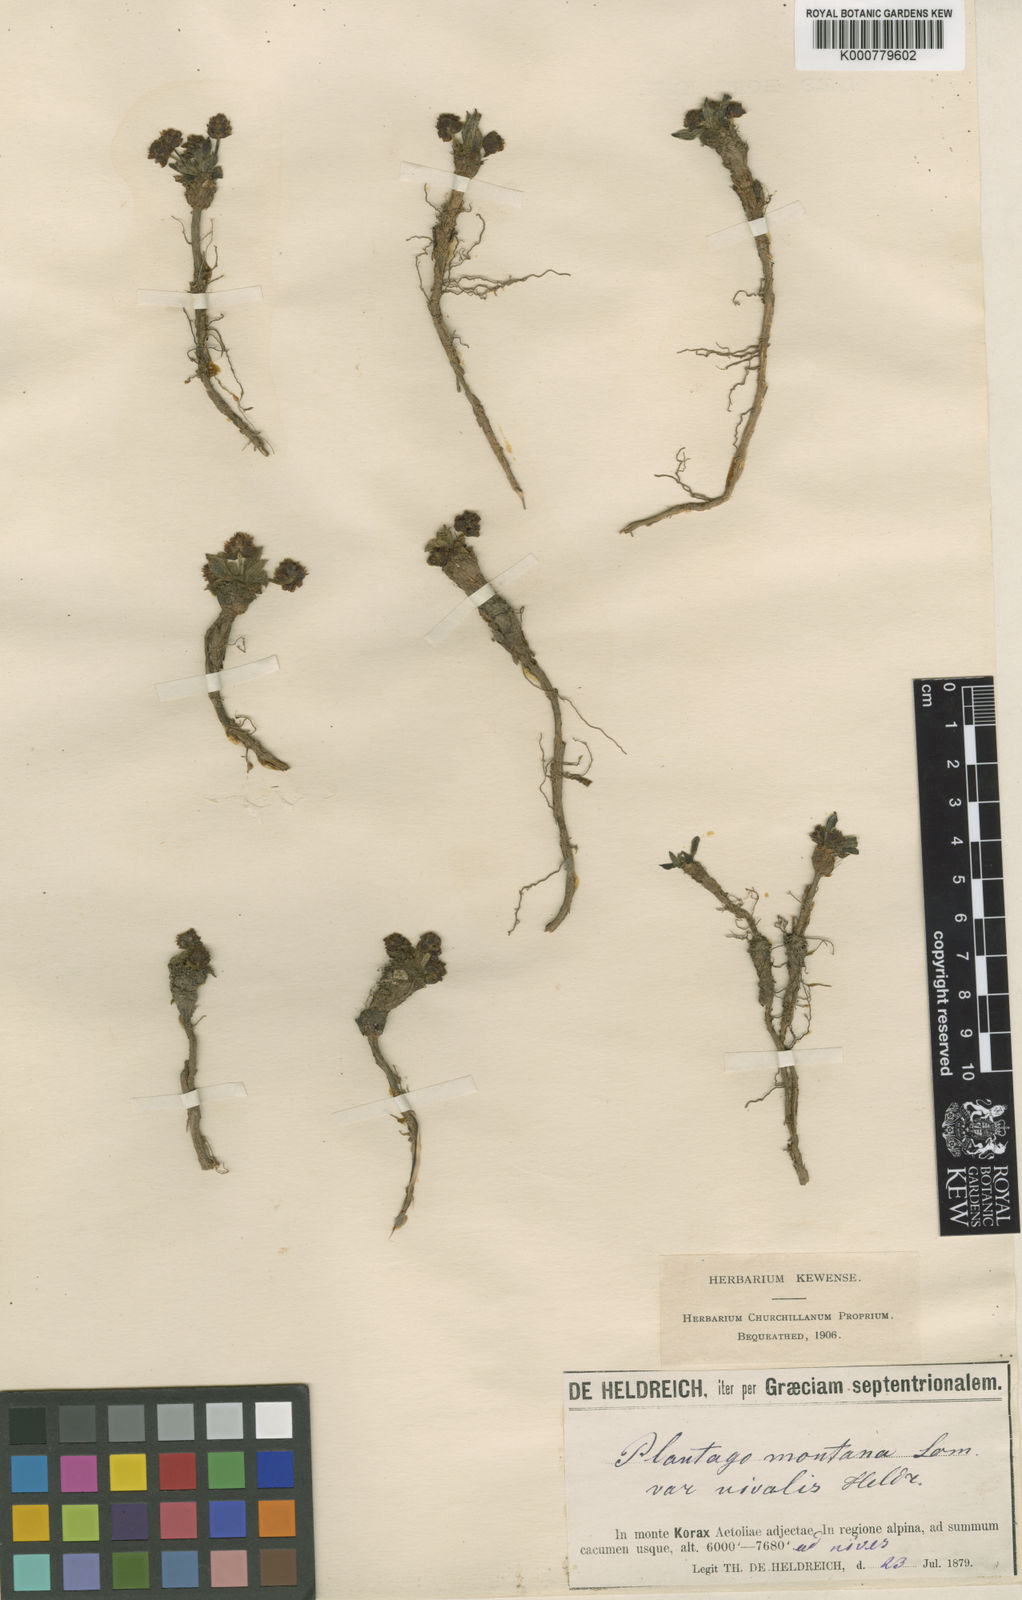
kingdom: Plantae
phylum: Tracheophyta
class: Magnoliopsida
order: Lamiales
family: Plantaginaceae
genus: Plantago
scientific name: Plantago atrata
